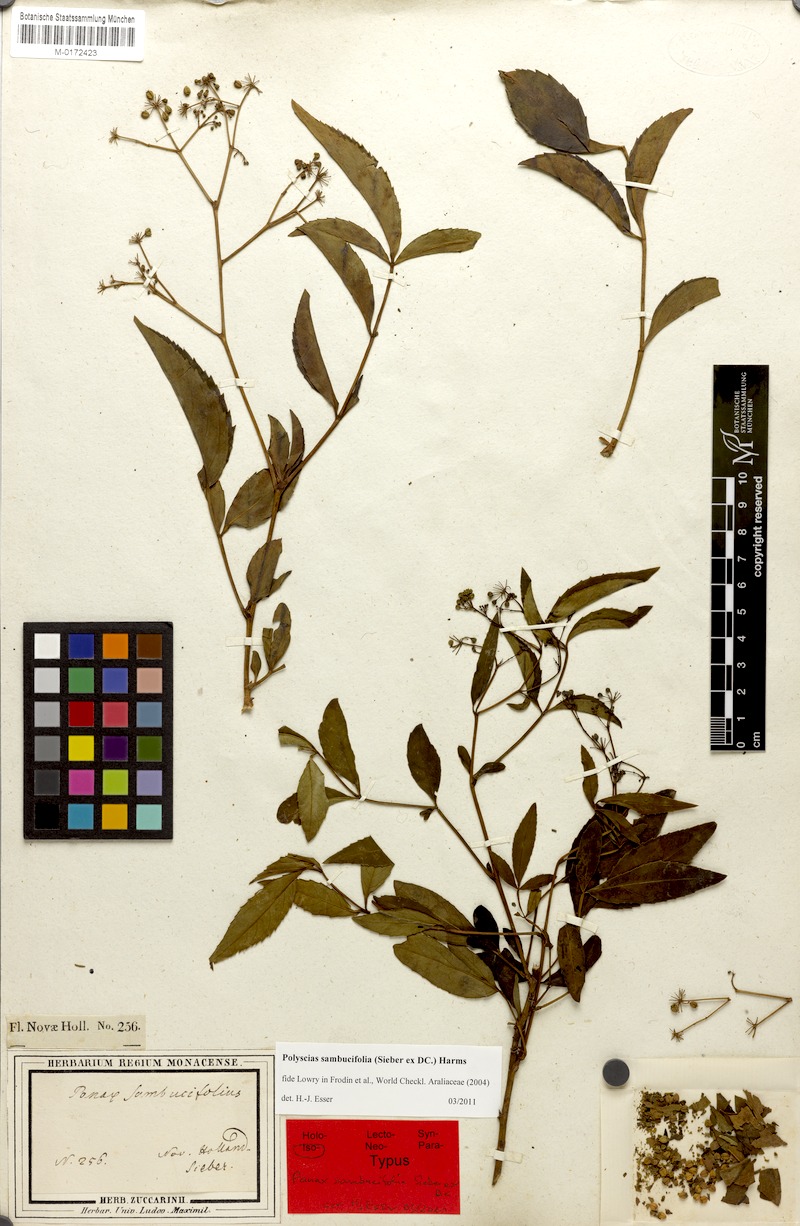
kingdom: Plantae
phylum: Tracheophyta
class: Magnoliopsida
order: Apiales
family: Araliaceae
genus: Polyscias
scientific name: Polyscias sambucifolia
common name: Elderberry-ash
